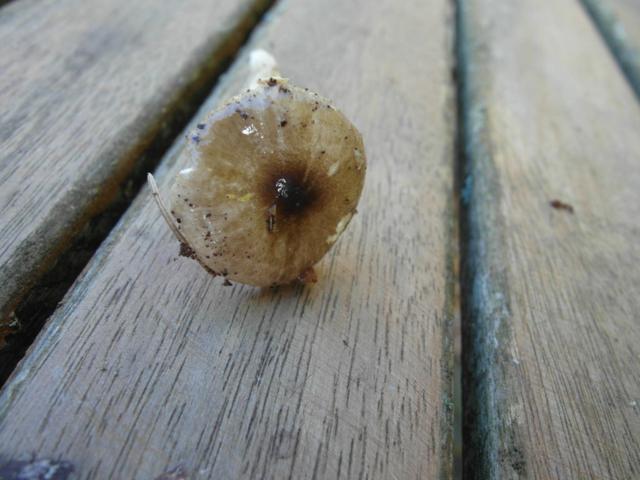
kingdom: Fungi
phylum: Basidiomycota
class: Agaricomycetes
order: Agaricales
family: Hygrophoraceae
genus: Hygrophorus
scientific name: Hygrophorus olivaceoalbus
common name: hvidbrun sneglehat
